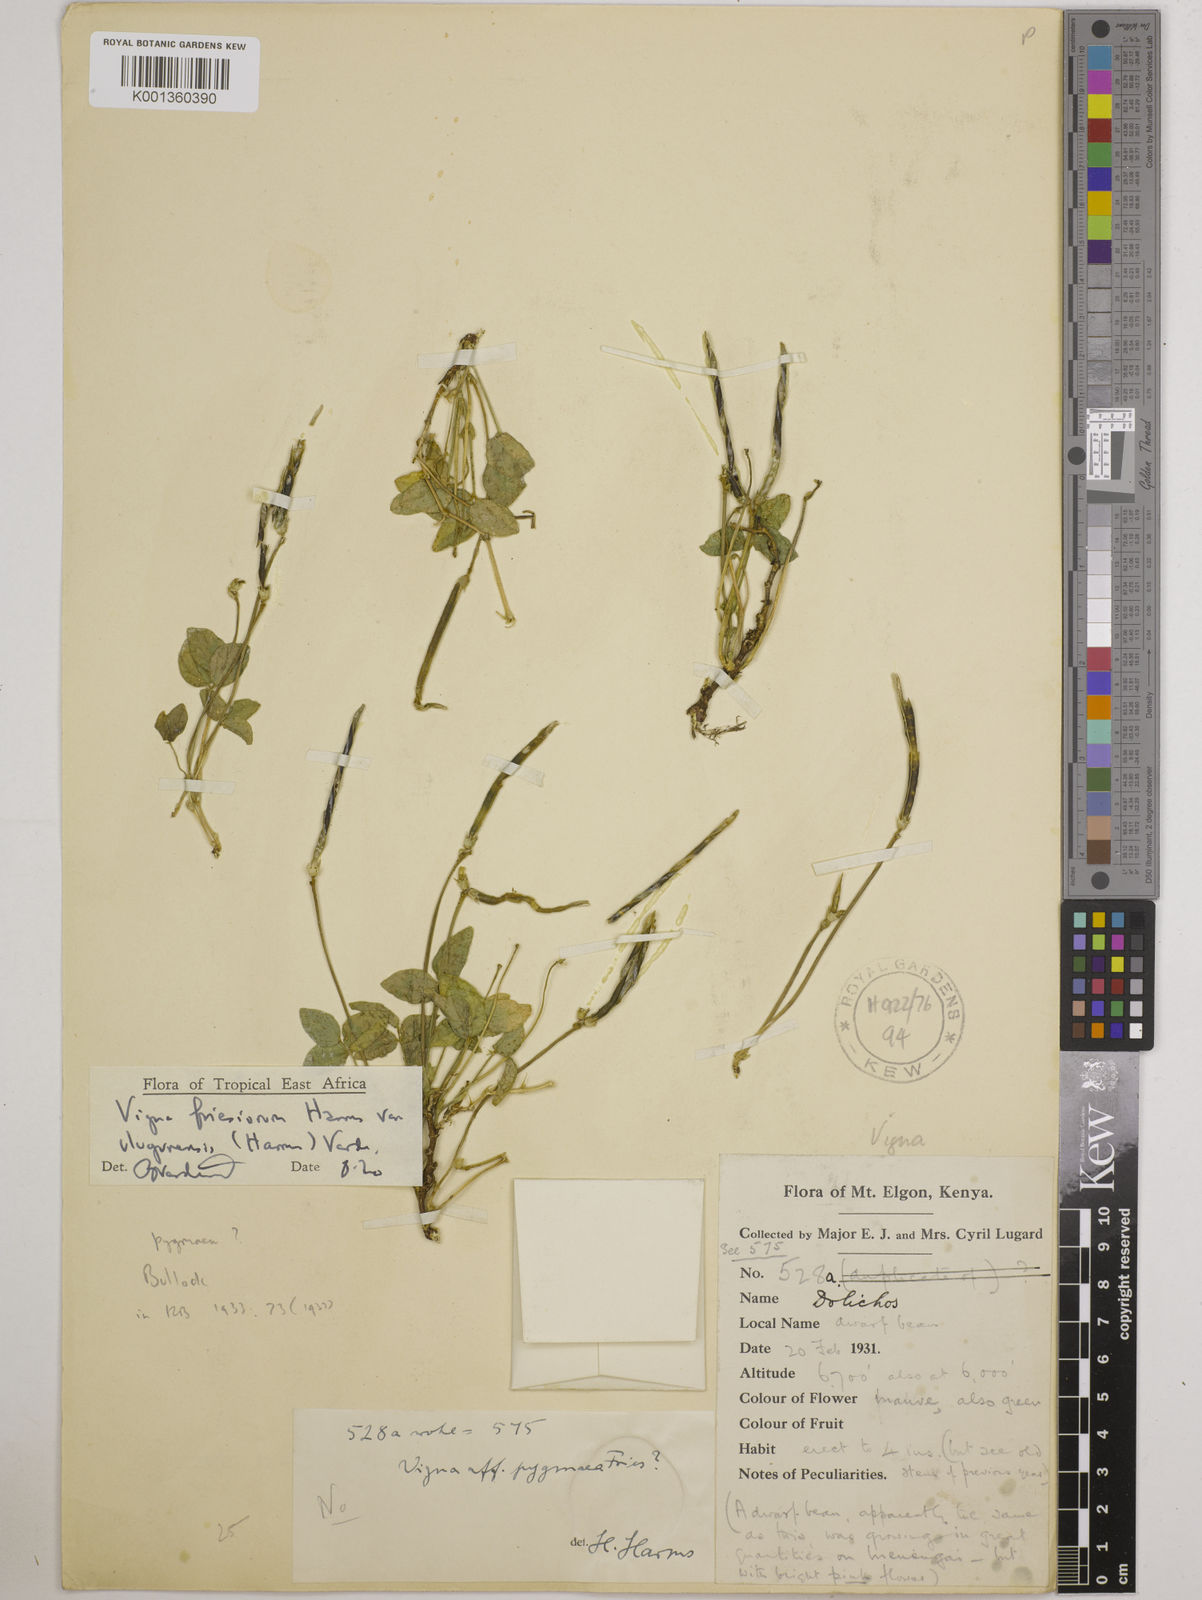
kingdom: Plantae
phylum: Tracheophyta
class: Magnoliopsida
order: Fabales
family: Fabaceae
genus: Vigna
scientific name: Vigna
